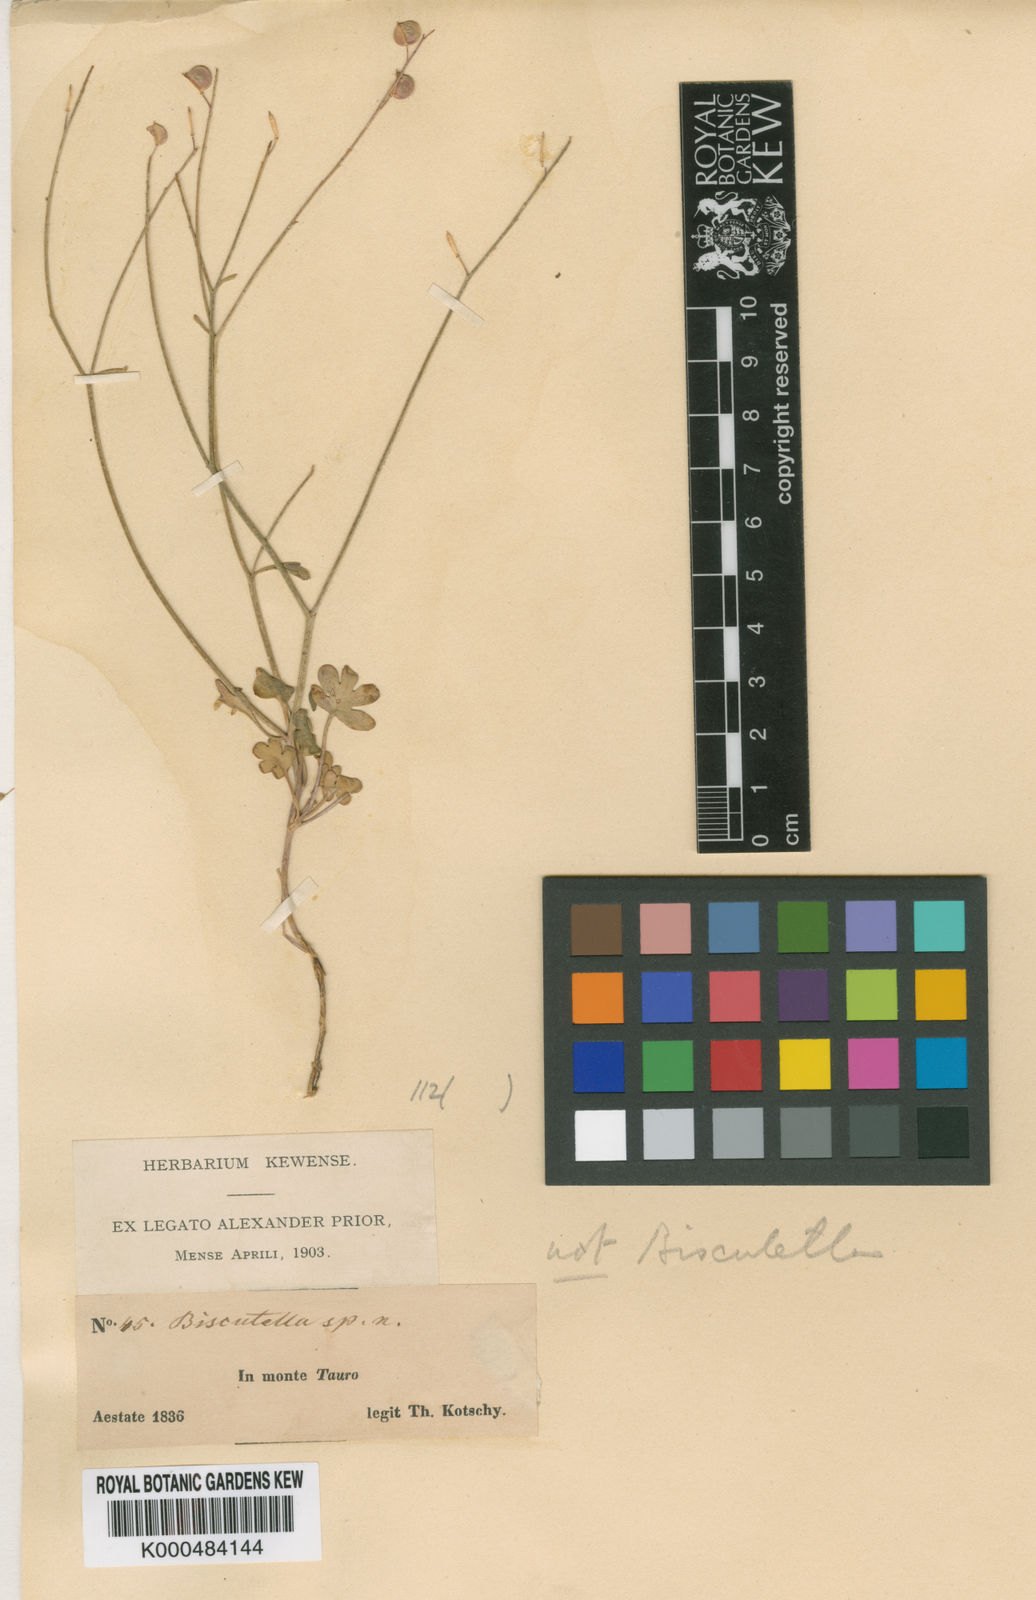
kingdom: Plantae
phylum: Tracheophyta
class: Magnoliopsida
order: Brassicales
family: Brassicaceae
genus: Heldreichia
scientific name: Heldreichia
